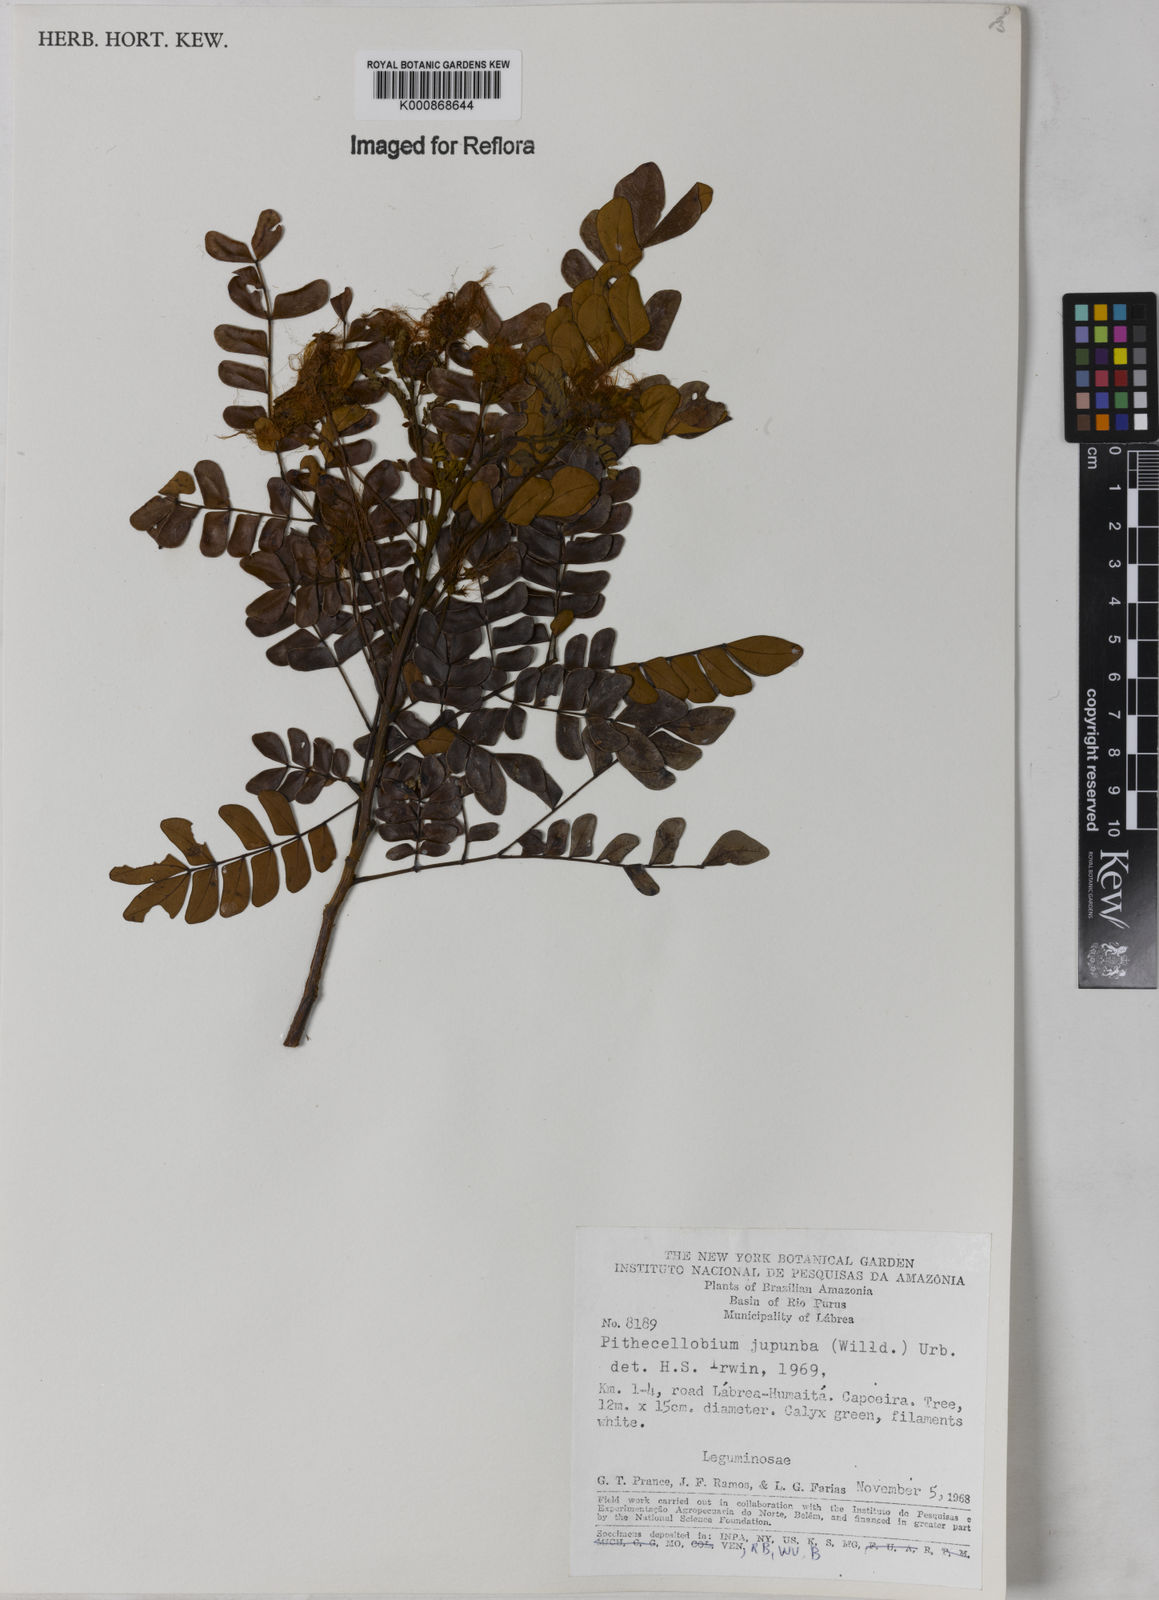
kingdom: Plantae
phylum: Tracheophyta
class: Magnoliopsida
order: Fabales
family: Fabaceae
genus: Jupunba
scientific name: Jupunba trapezifolia
